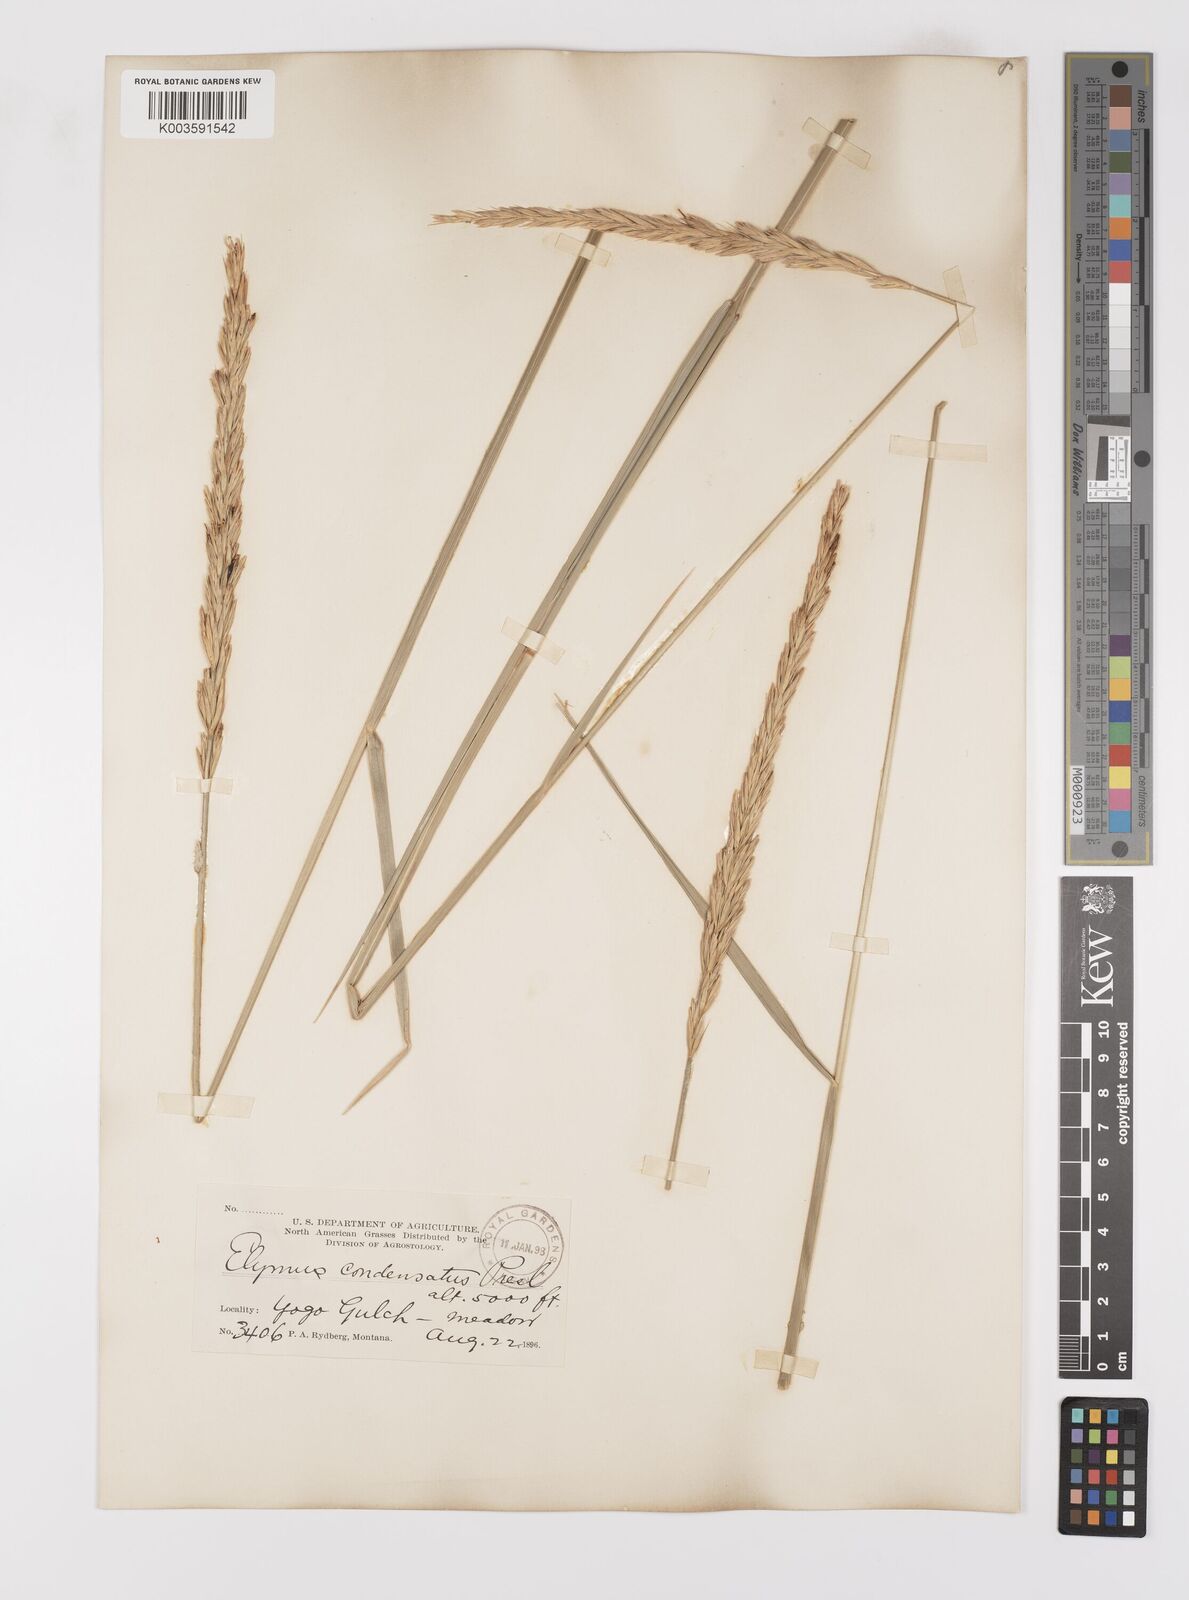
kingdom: Plantae
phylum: Tracheophyta
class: Liliopsida
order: Poales
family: Poaceae
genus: Leymus
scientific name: Leymus condensatus
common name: Giant wild rye
